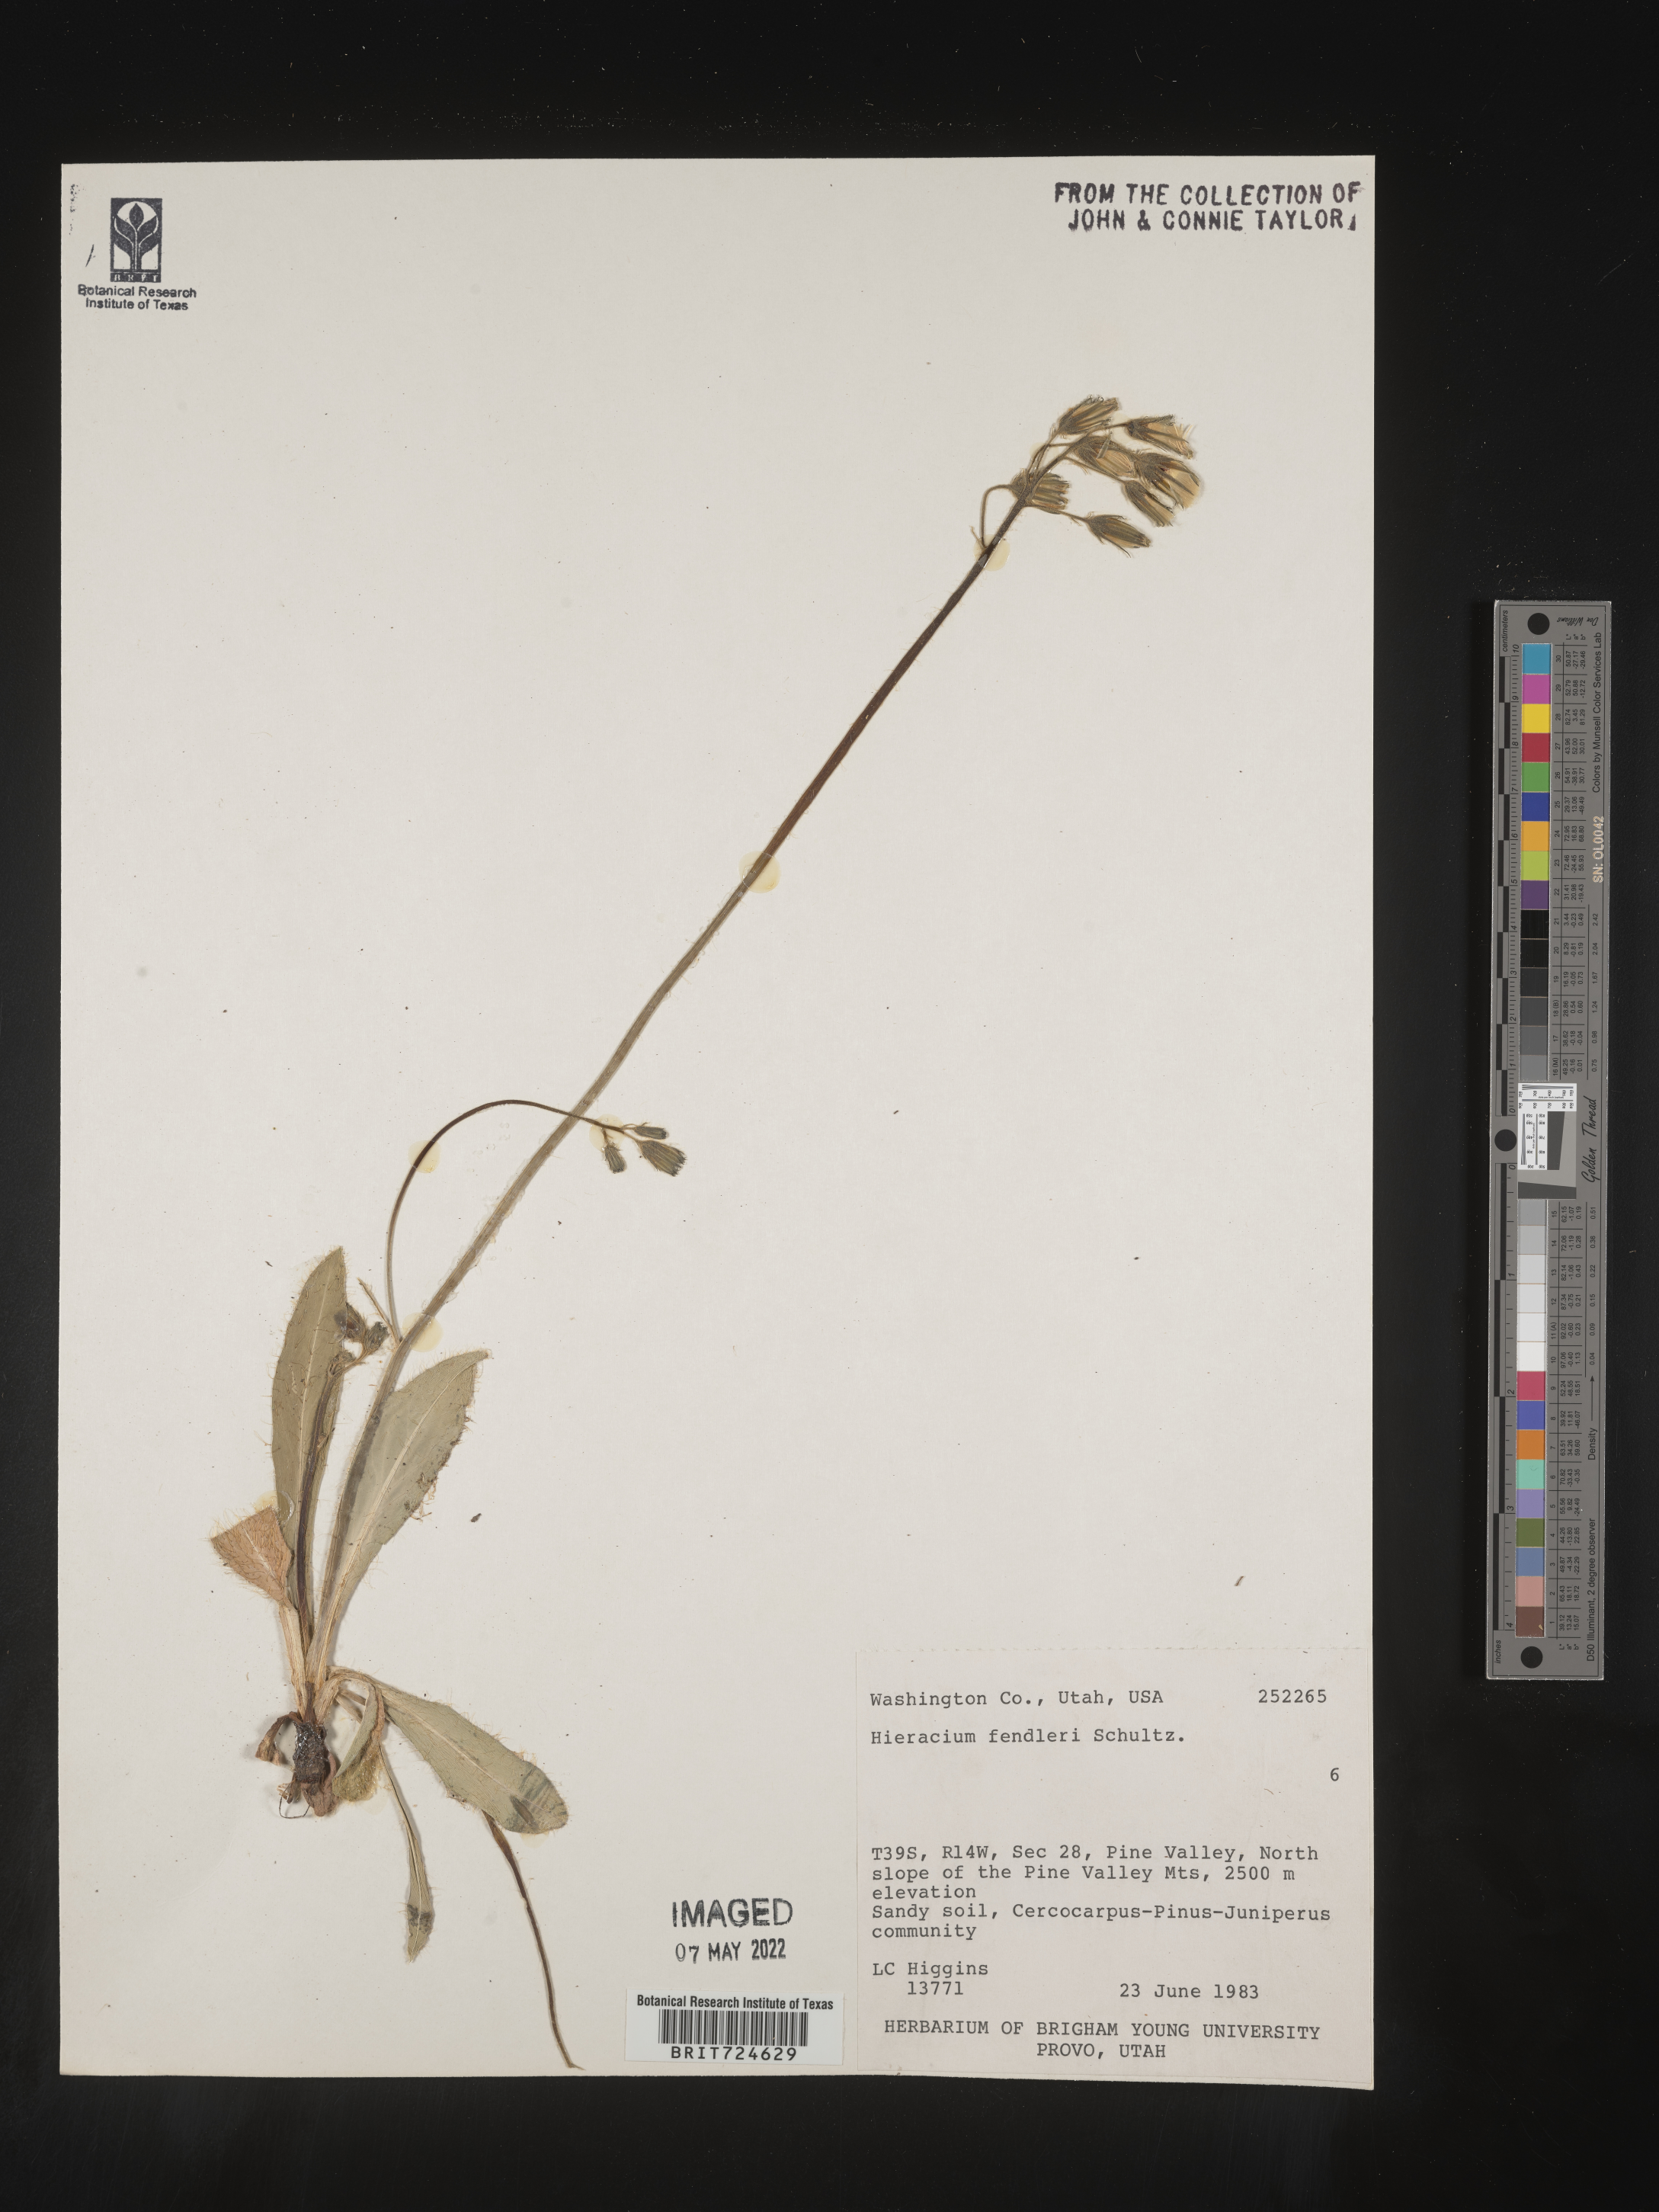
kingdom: Plantae
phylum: Tracheophyta
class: Magnoliopsida
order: Asterales
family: Asteraceae
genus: Hieracium
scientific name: Hieracium
